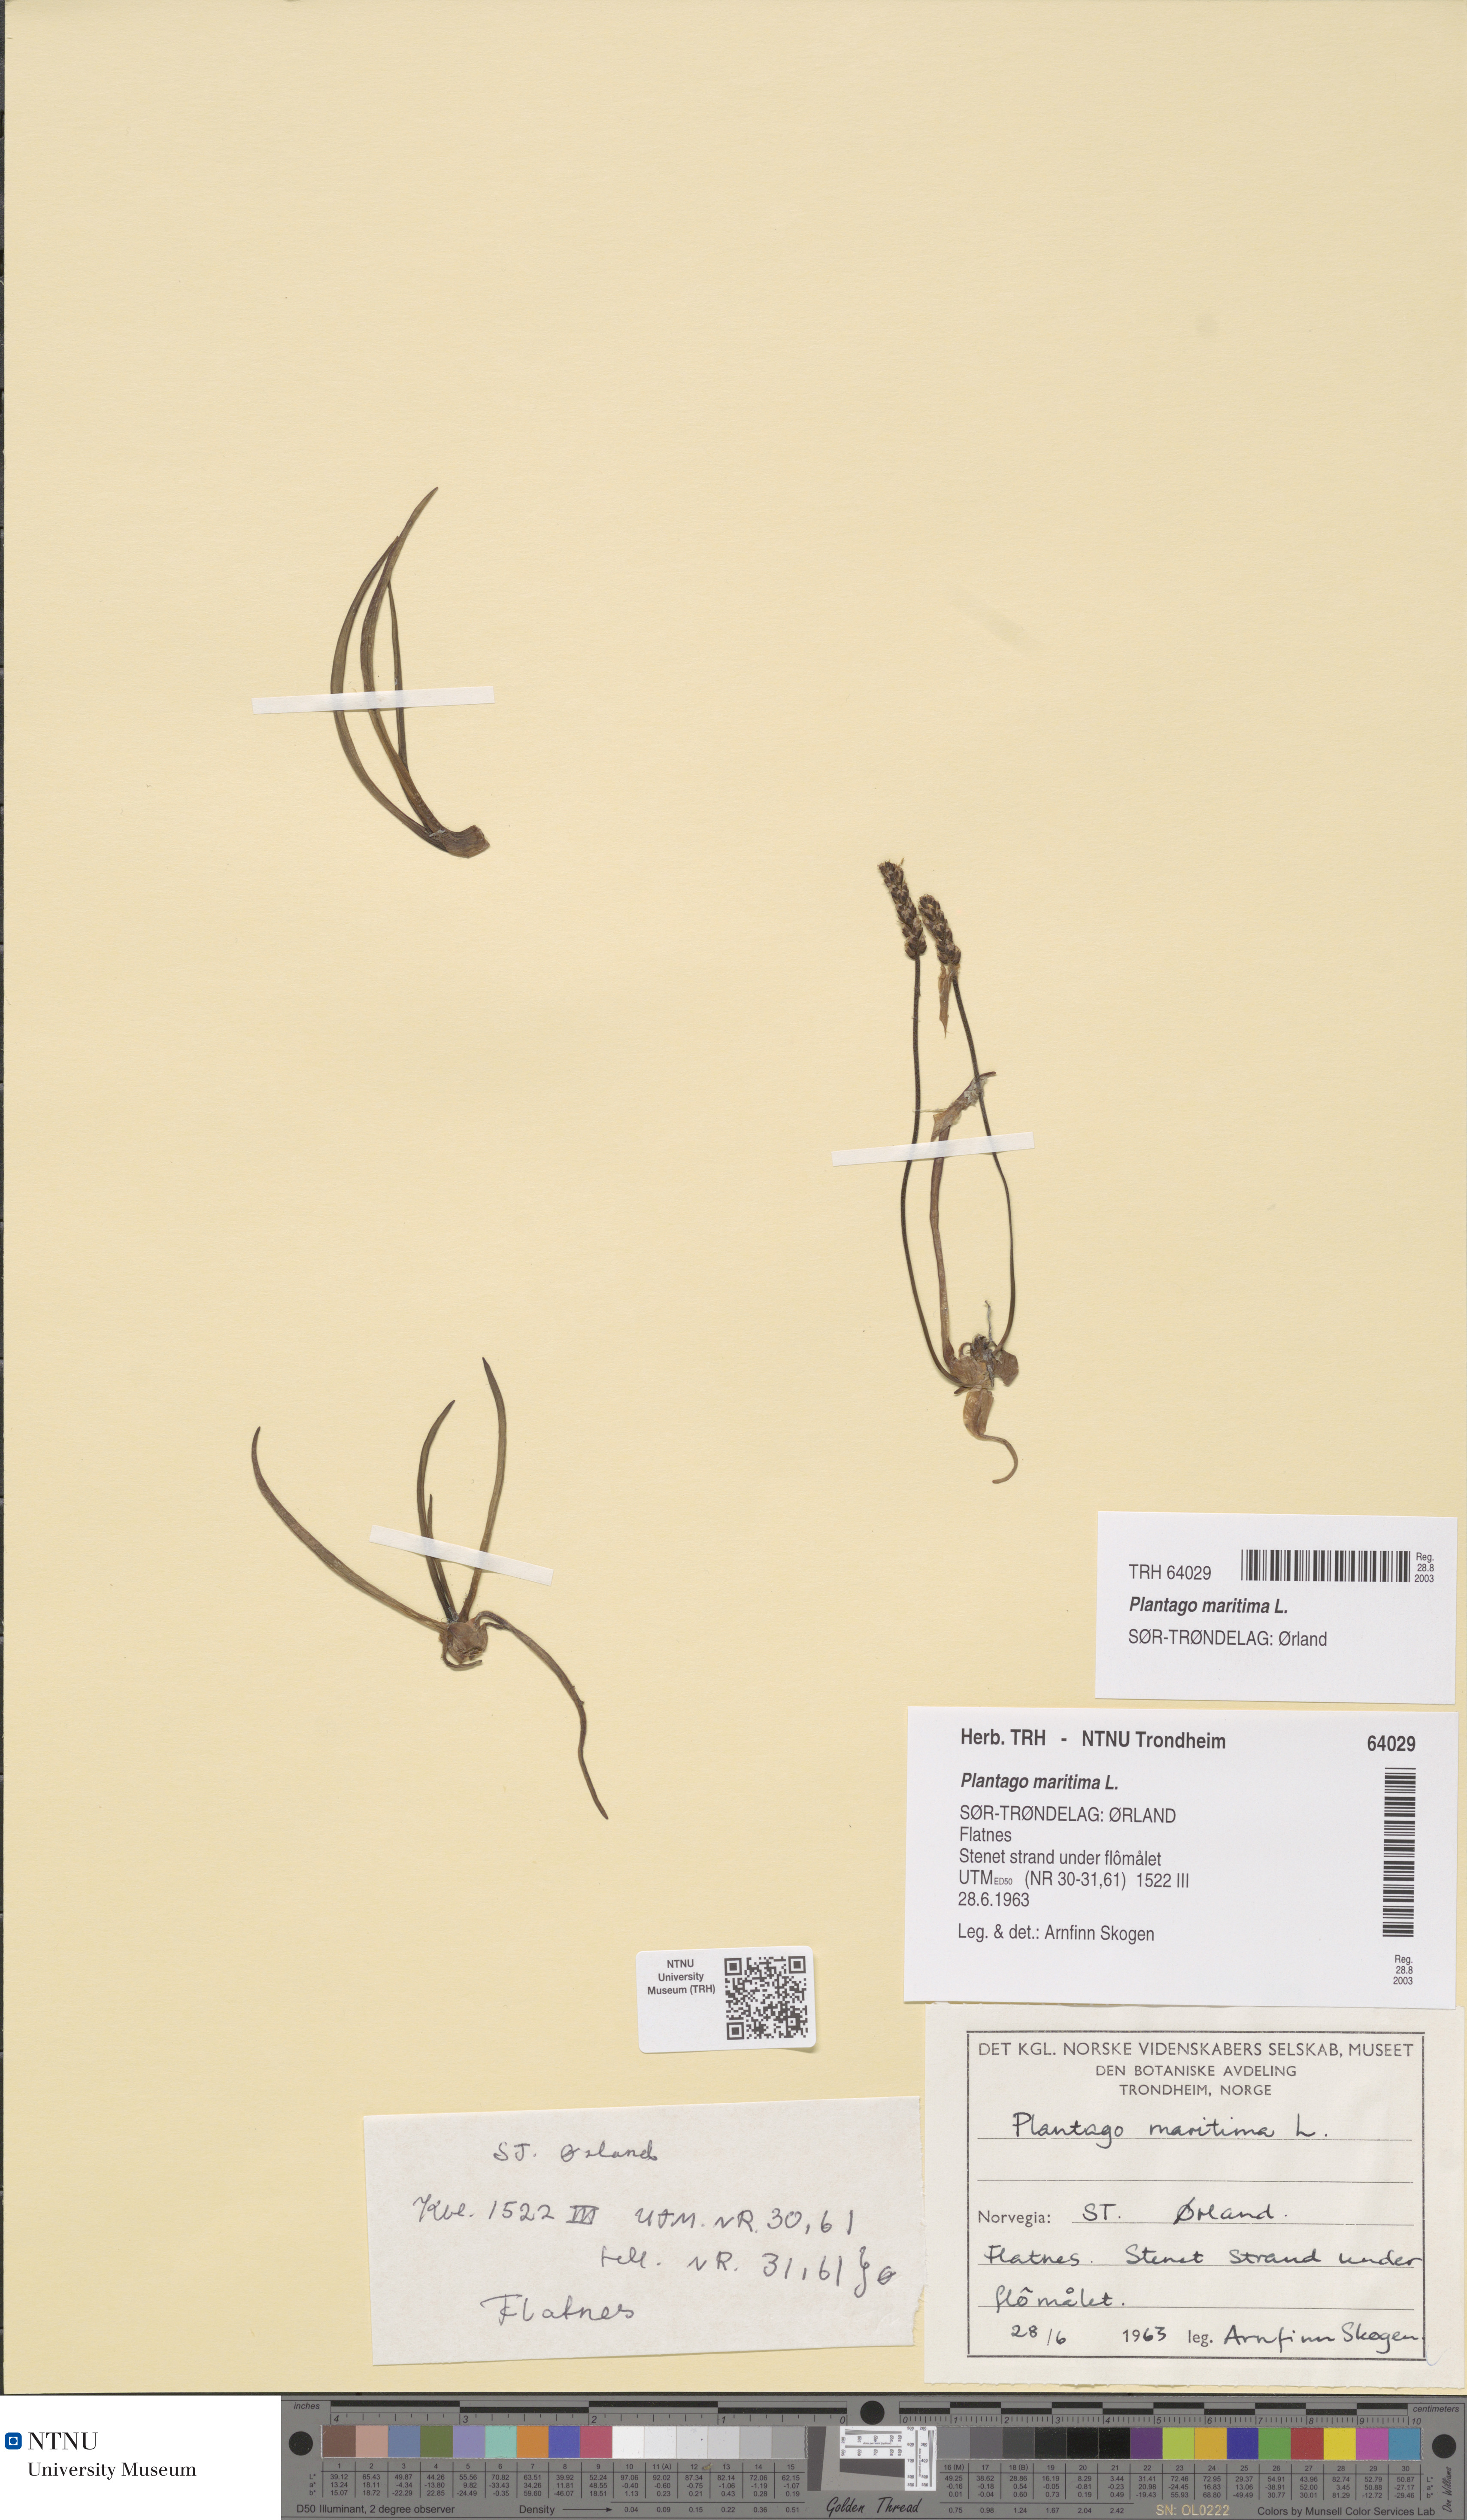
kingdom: Plantae
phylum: Tracheophyta
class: Magnoliopsida
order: Lamiales
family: Plantaginaceae
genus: Plantago
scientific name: Plantago maritima
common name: Sea plantain
